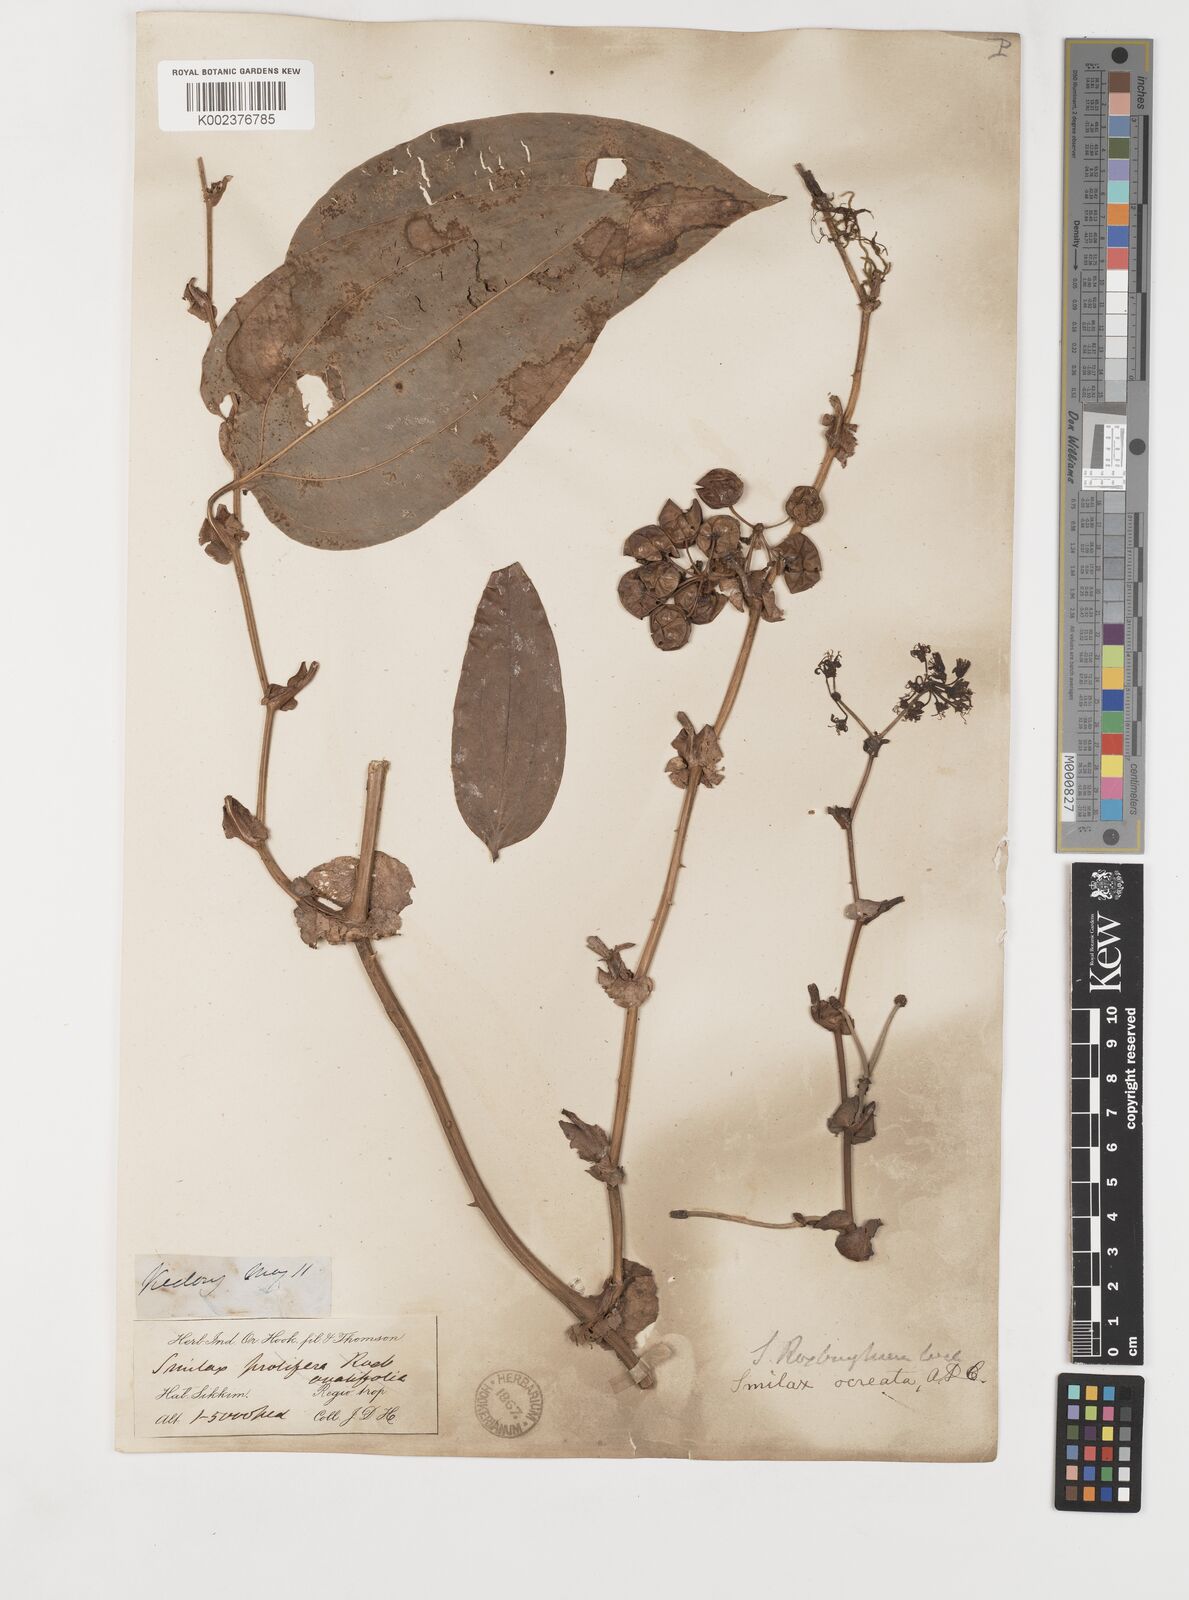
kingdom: Plantae
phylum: Tracheophyta
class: Liliopsida
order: Liliales
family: Smilacaceae
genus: Smilax
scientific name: Smilax ocreata
